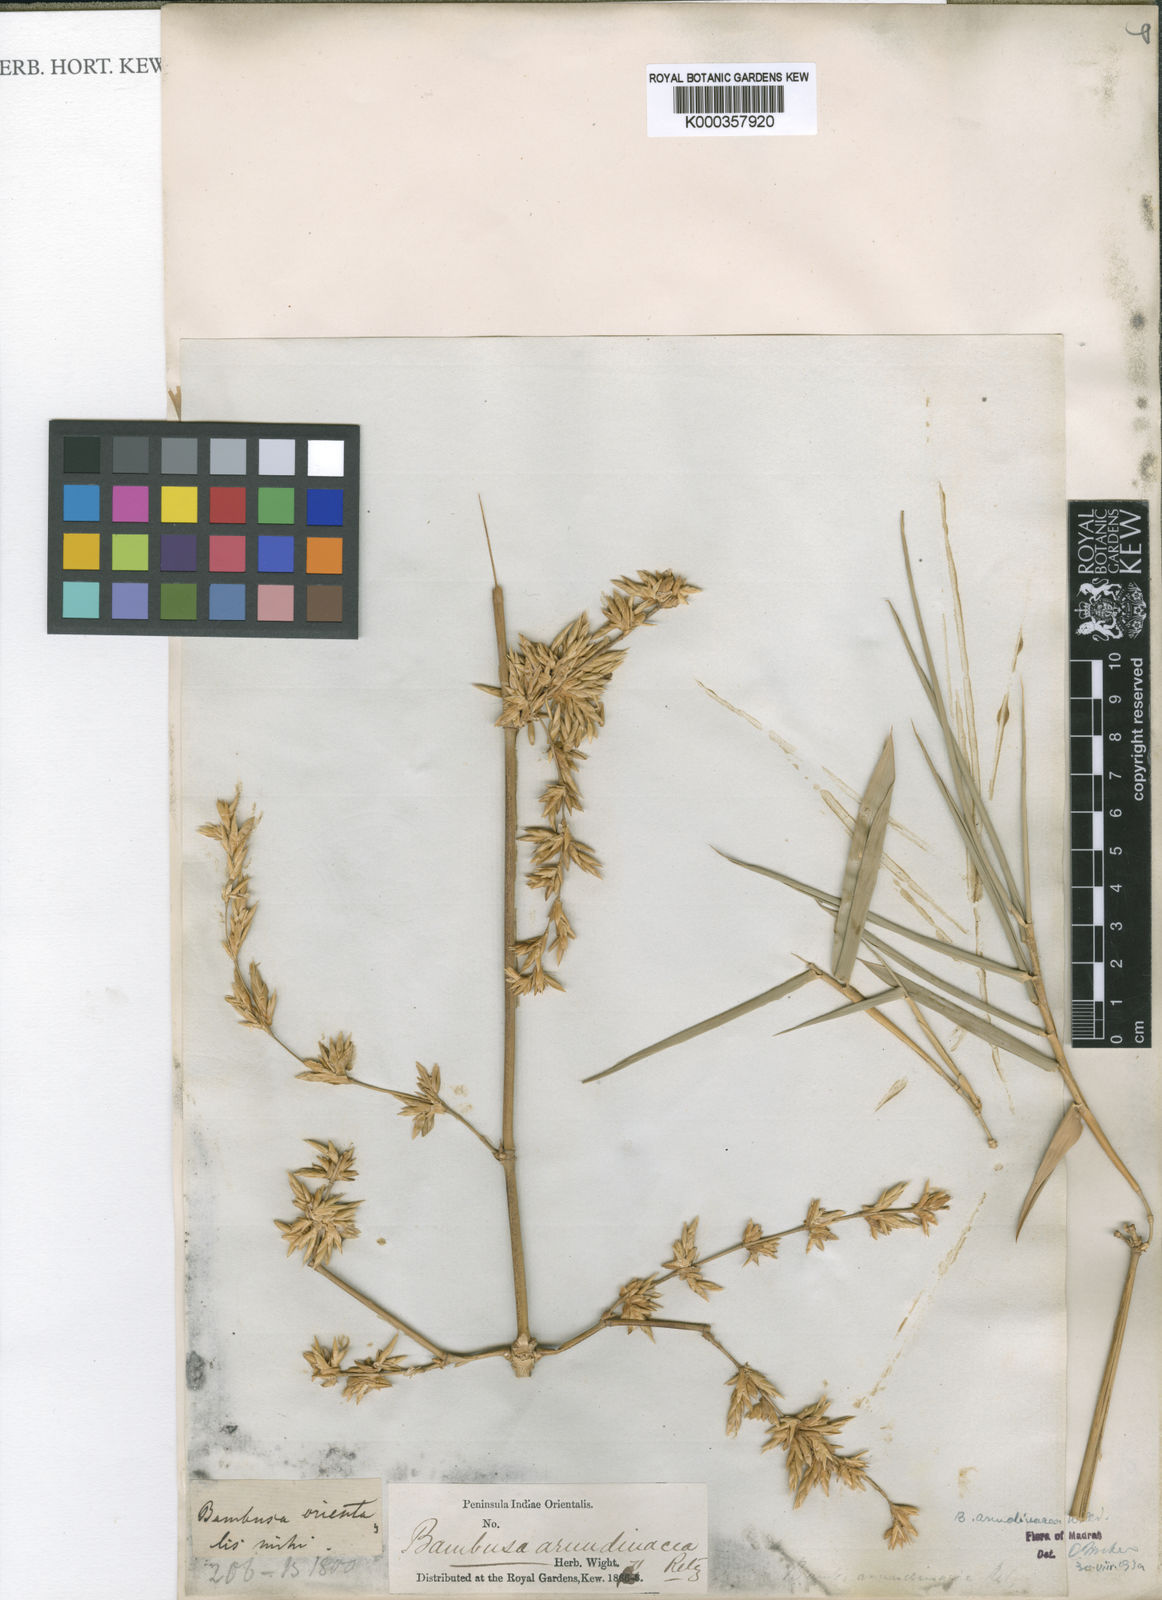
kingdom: Plantae
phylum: Tracheophyta
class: Liliopsida
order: Poales
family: Poaceae
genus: Bambusa
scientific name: Bambusa bambos
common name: Indian thorny bamboo
